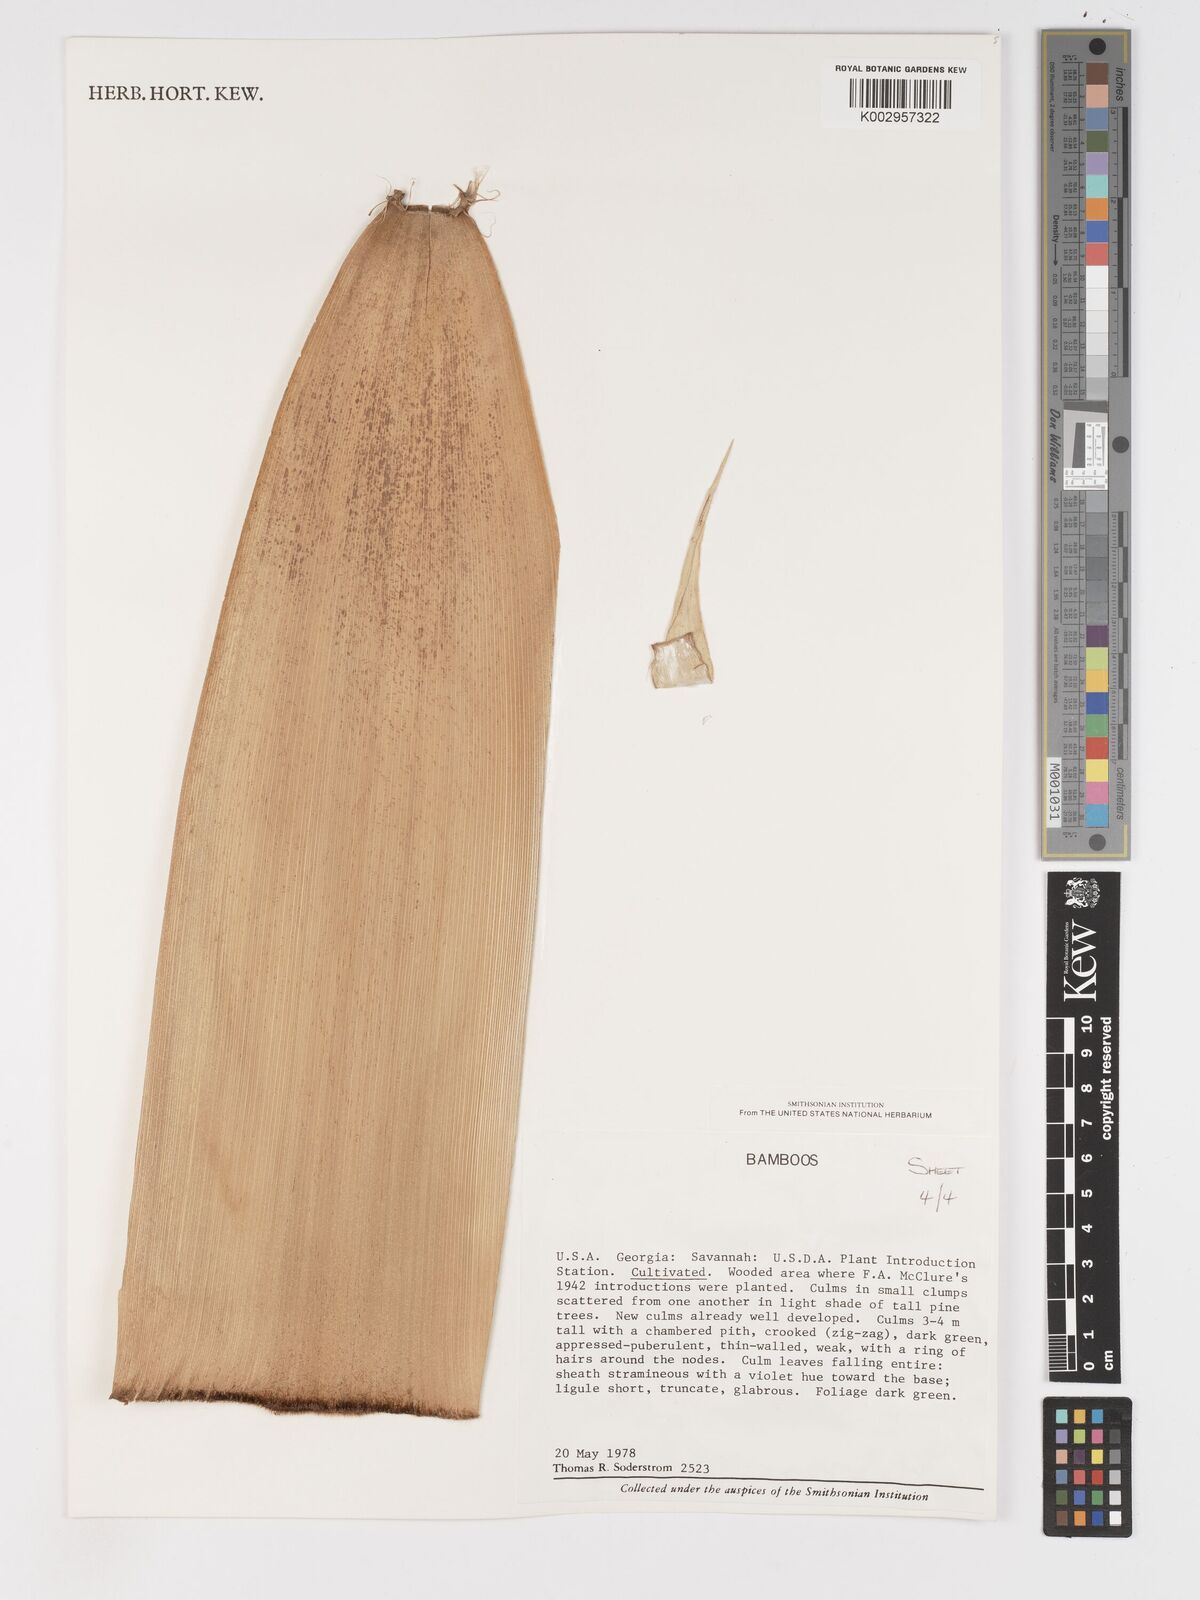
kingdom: Plantae
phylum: Tracheophyta
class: Liliopsida
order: Poales
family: Poaceae
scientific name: Poaceae
